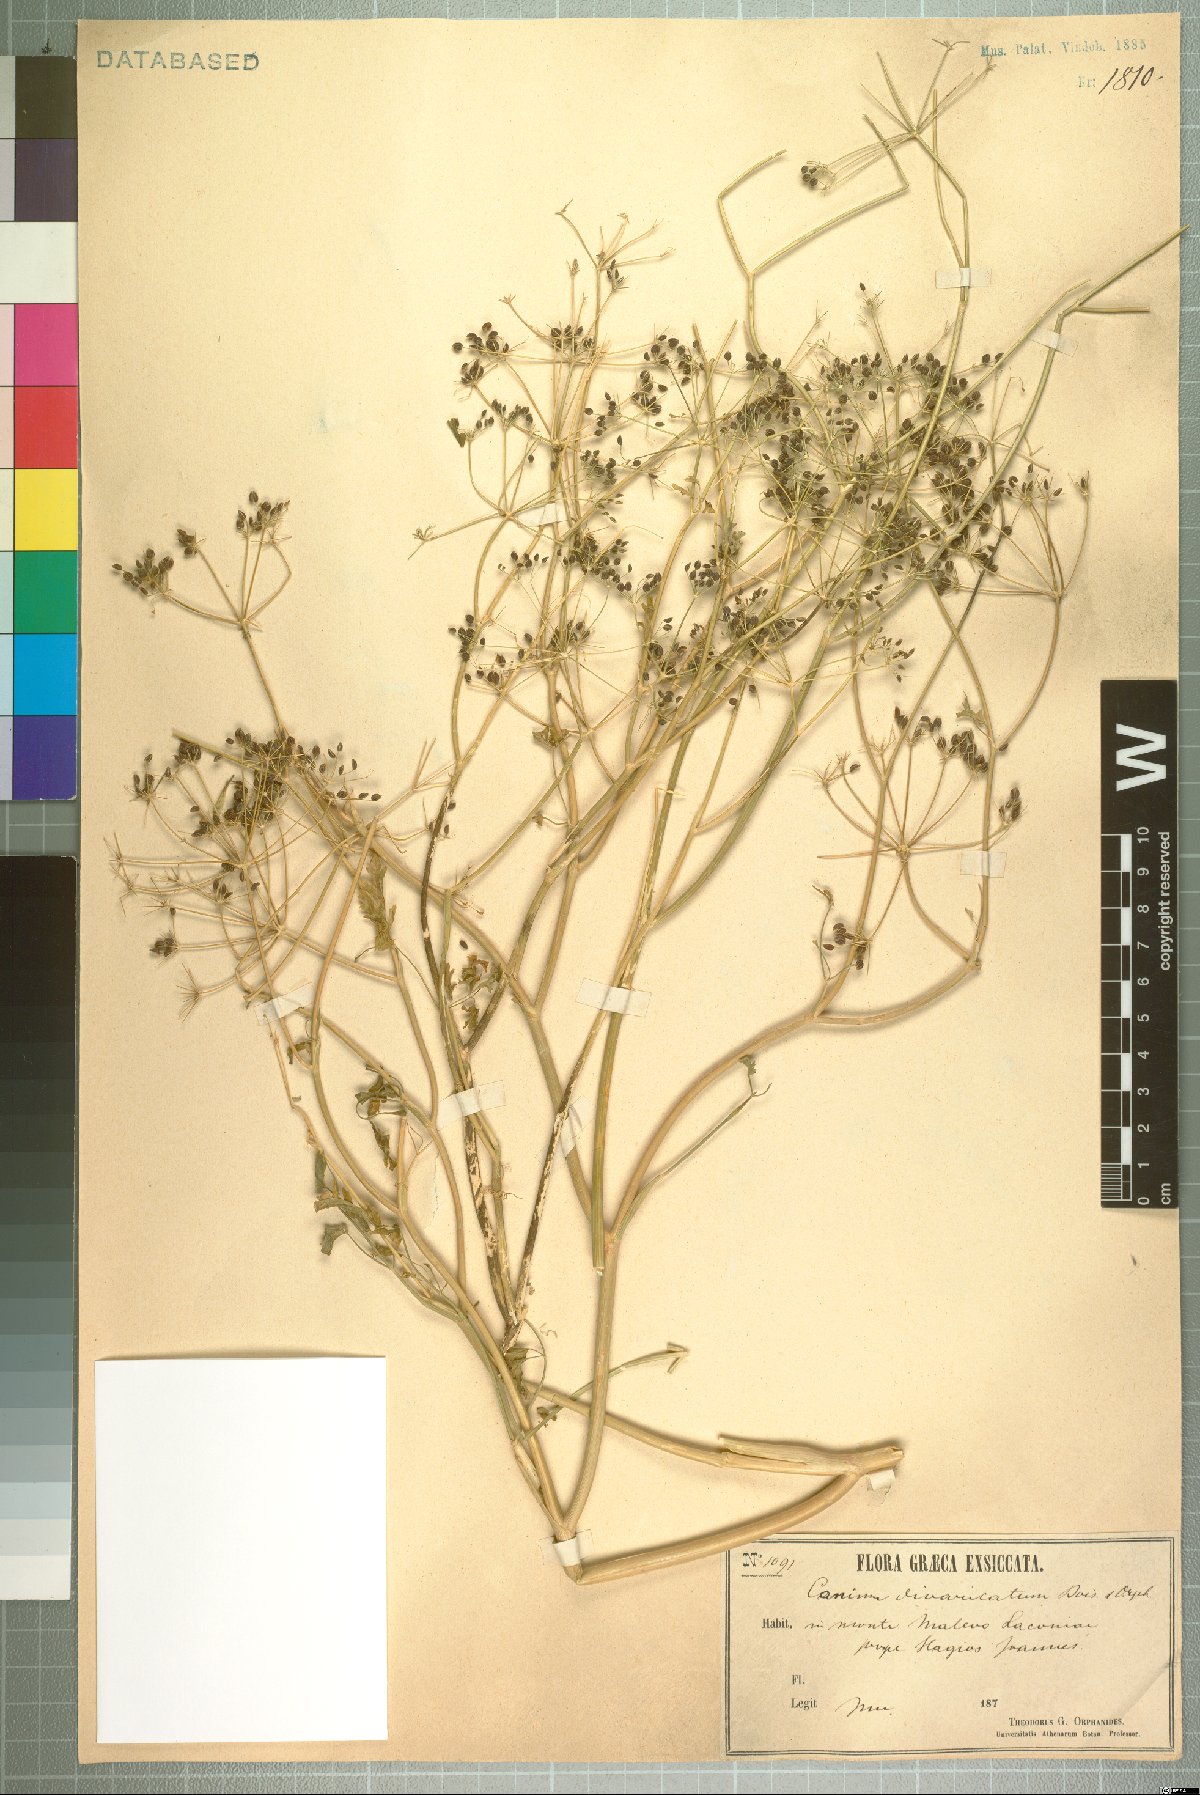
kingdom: Plantae
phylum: Tracheophyta
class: Magnoliopsida
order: Apiales
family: Apiaceae
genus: Conium
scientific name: Conium divaricatum
